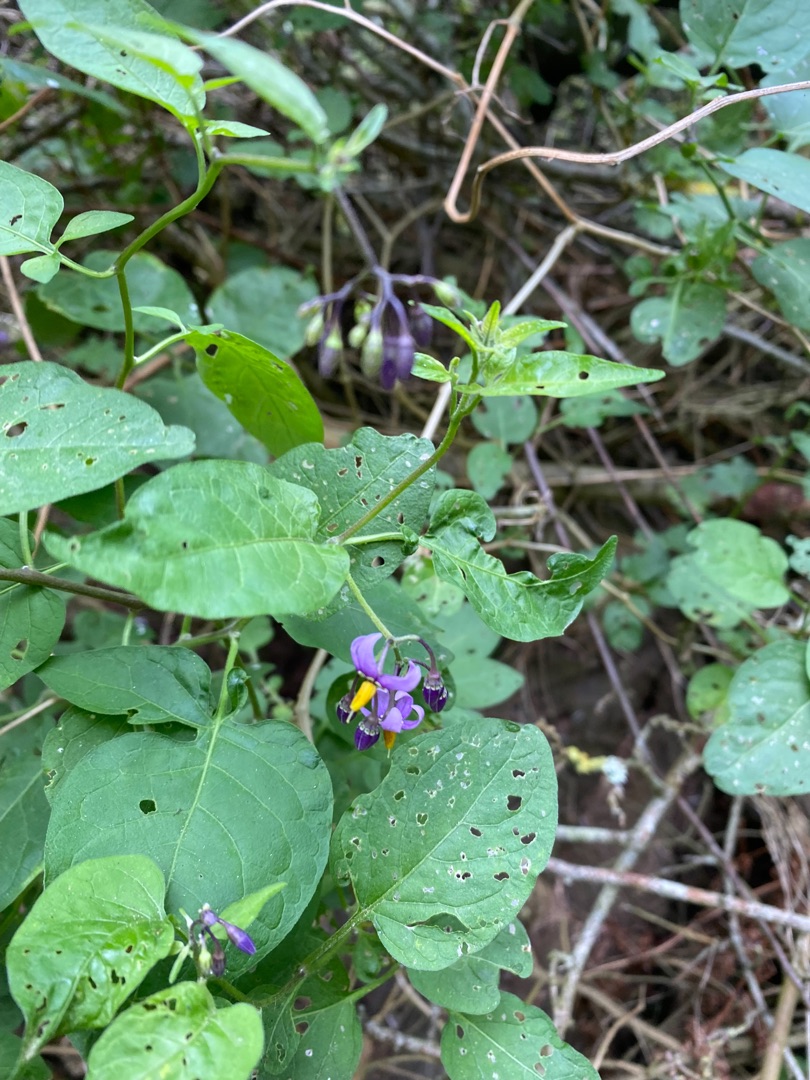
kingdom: Plantae
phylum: Tracheophyta
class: Magnoliopsida
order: Solanales
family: Solanaceae
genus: Solanum
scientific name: Solanum dulcamara
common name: Bittersød natskygge
